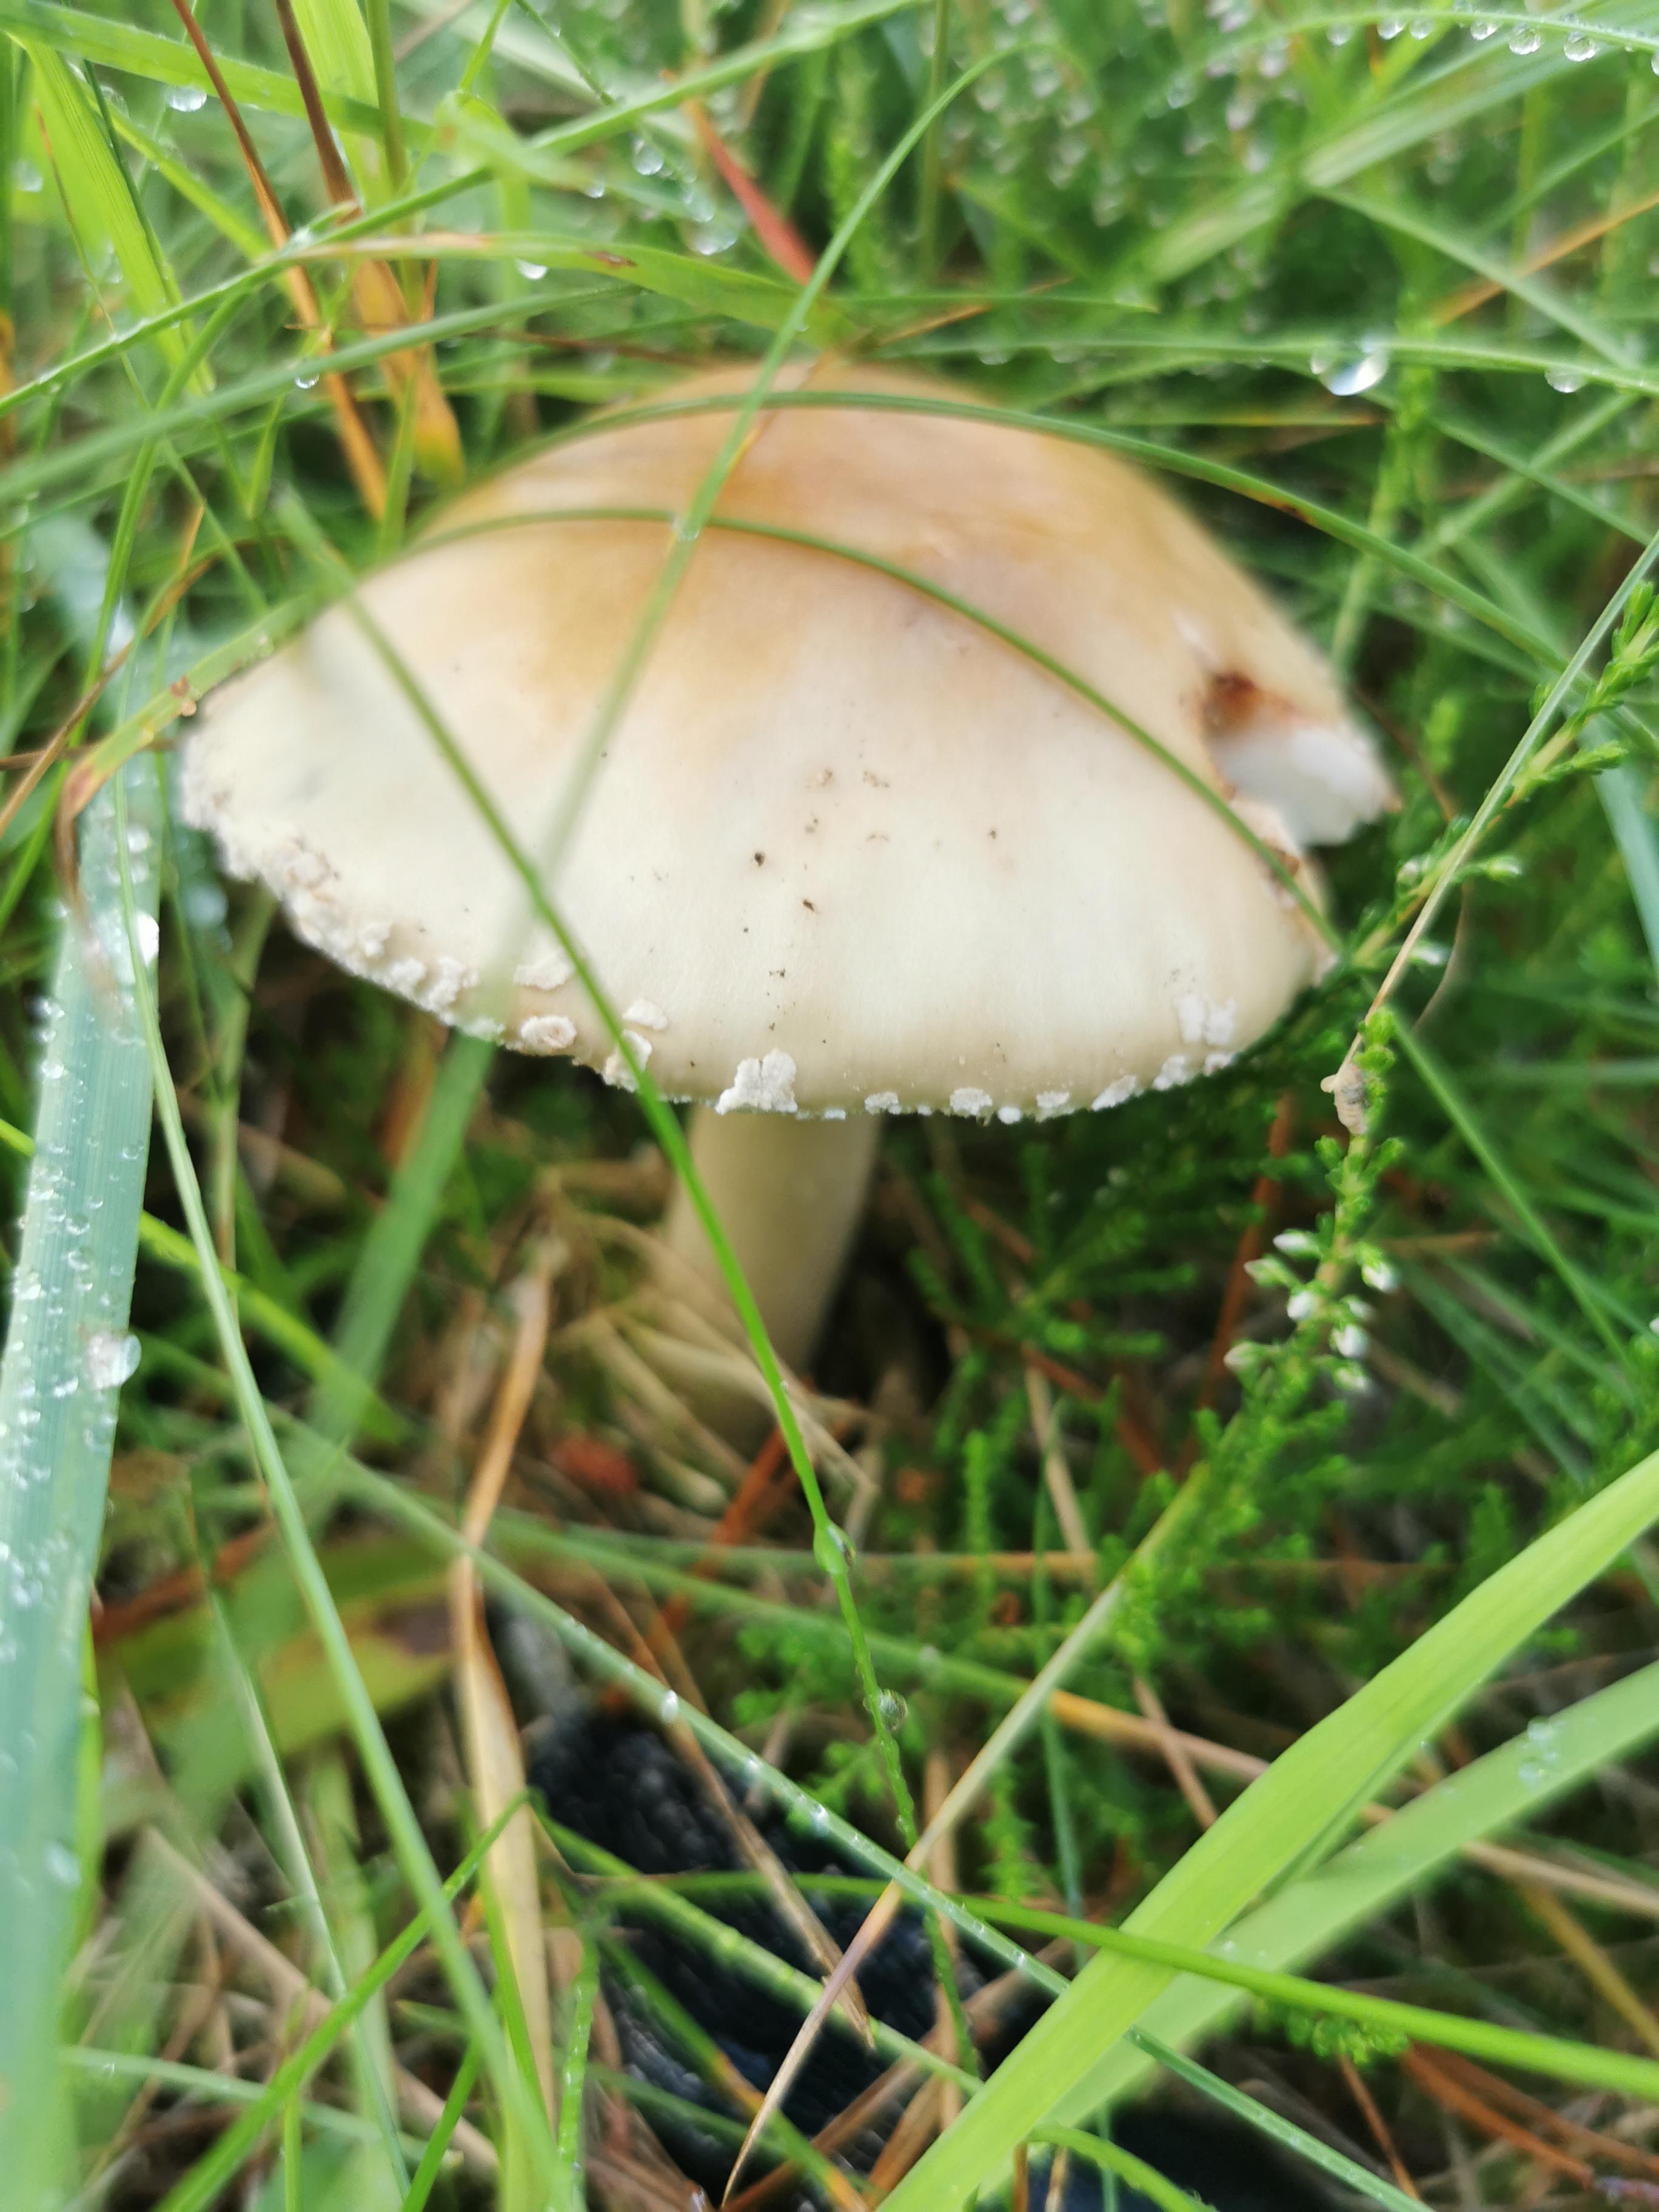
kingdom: Fungi
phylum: Basidiomycota
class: Agaricomycetes
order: Agaricales
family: Amanitaceae
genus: Amanita
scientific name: Amanita rubescens
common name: rødmende fluesvamp
